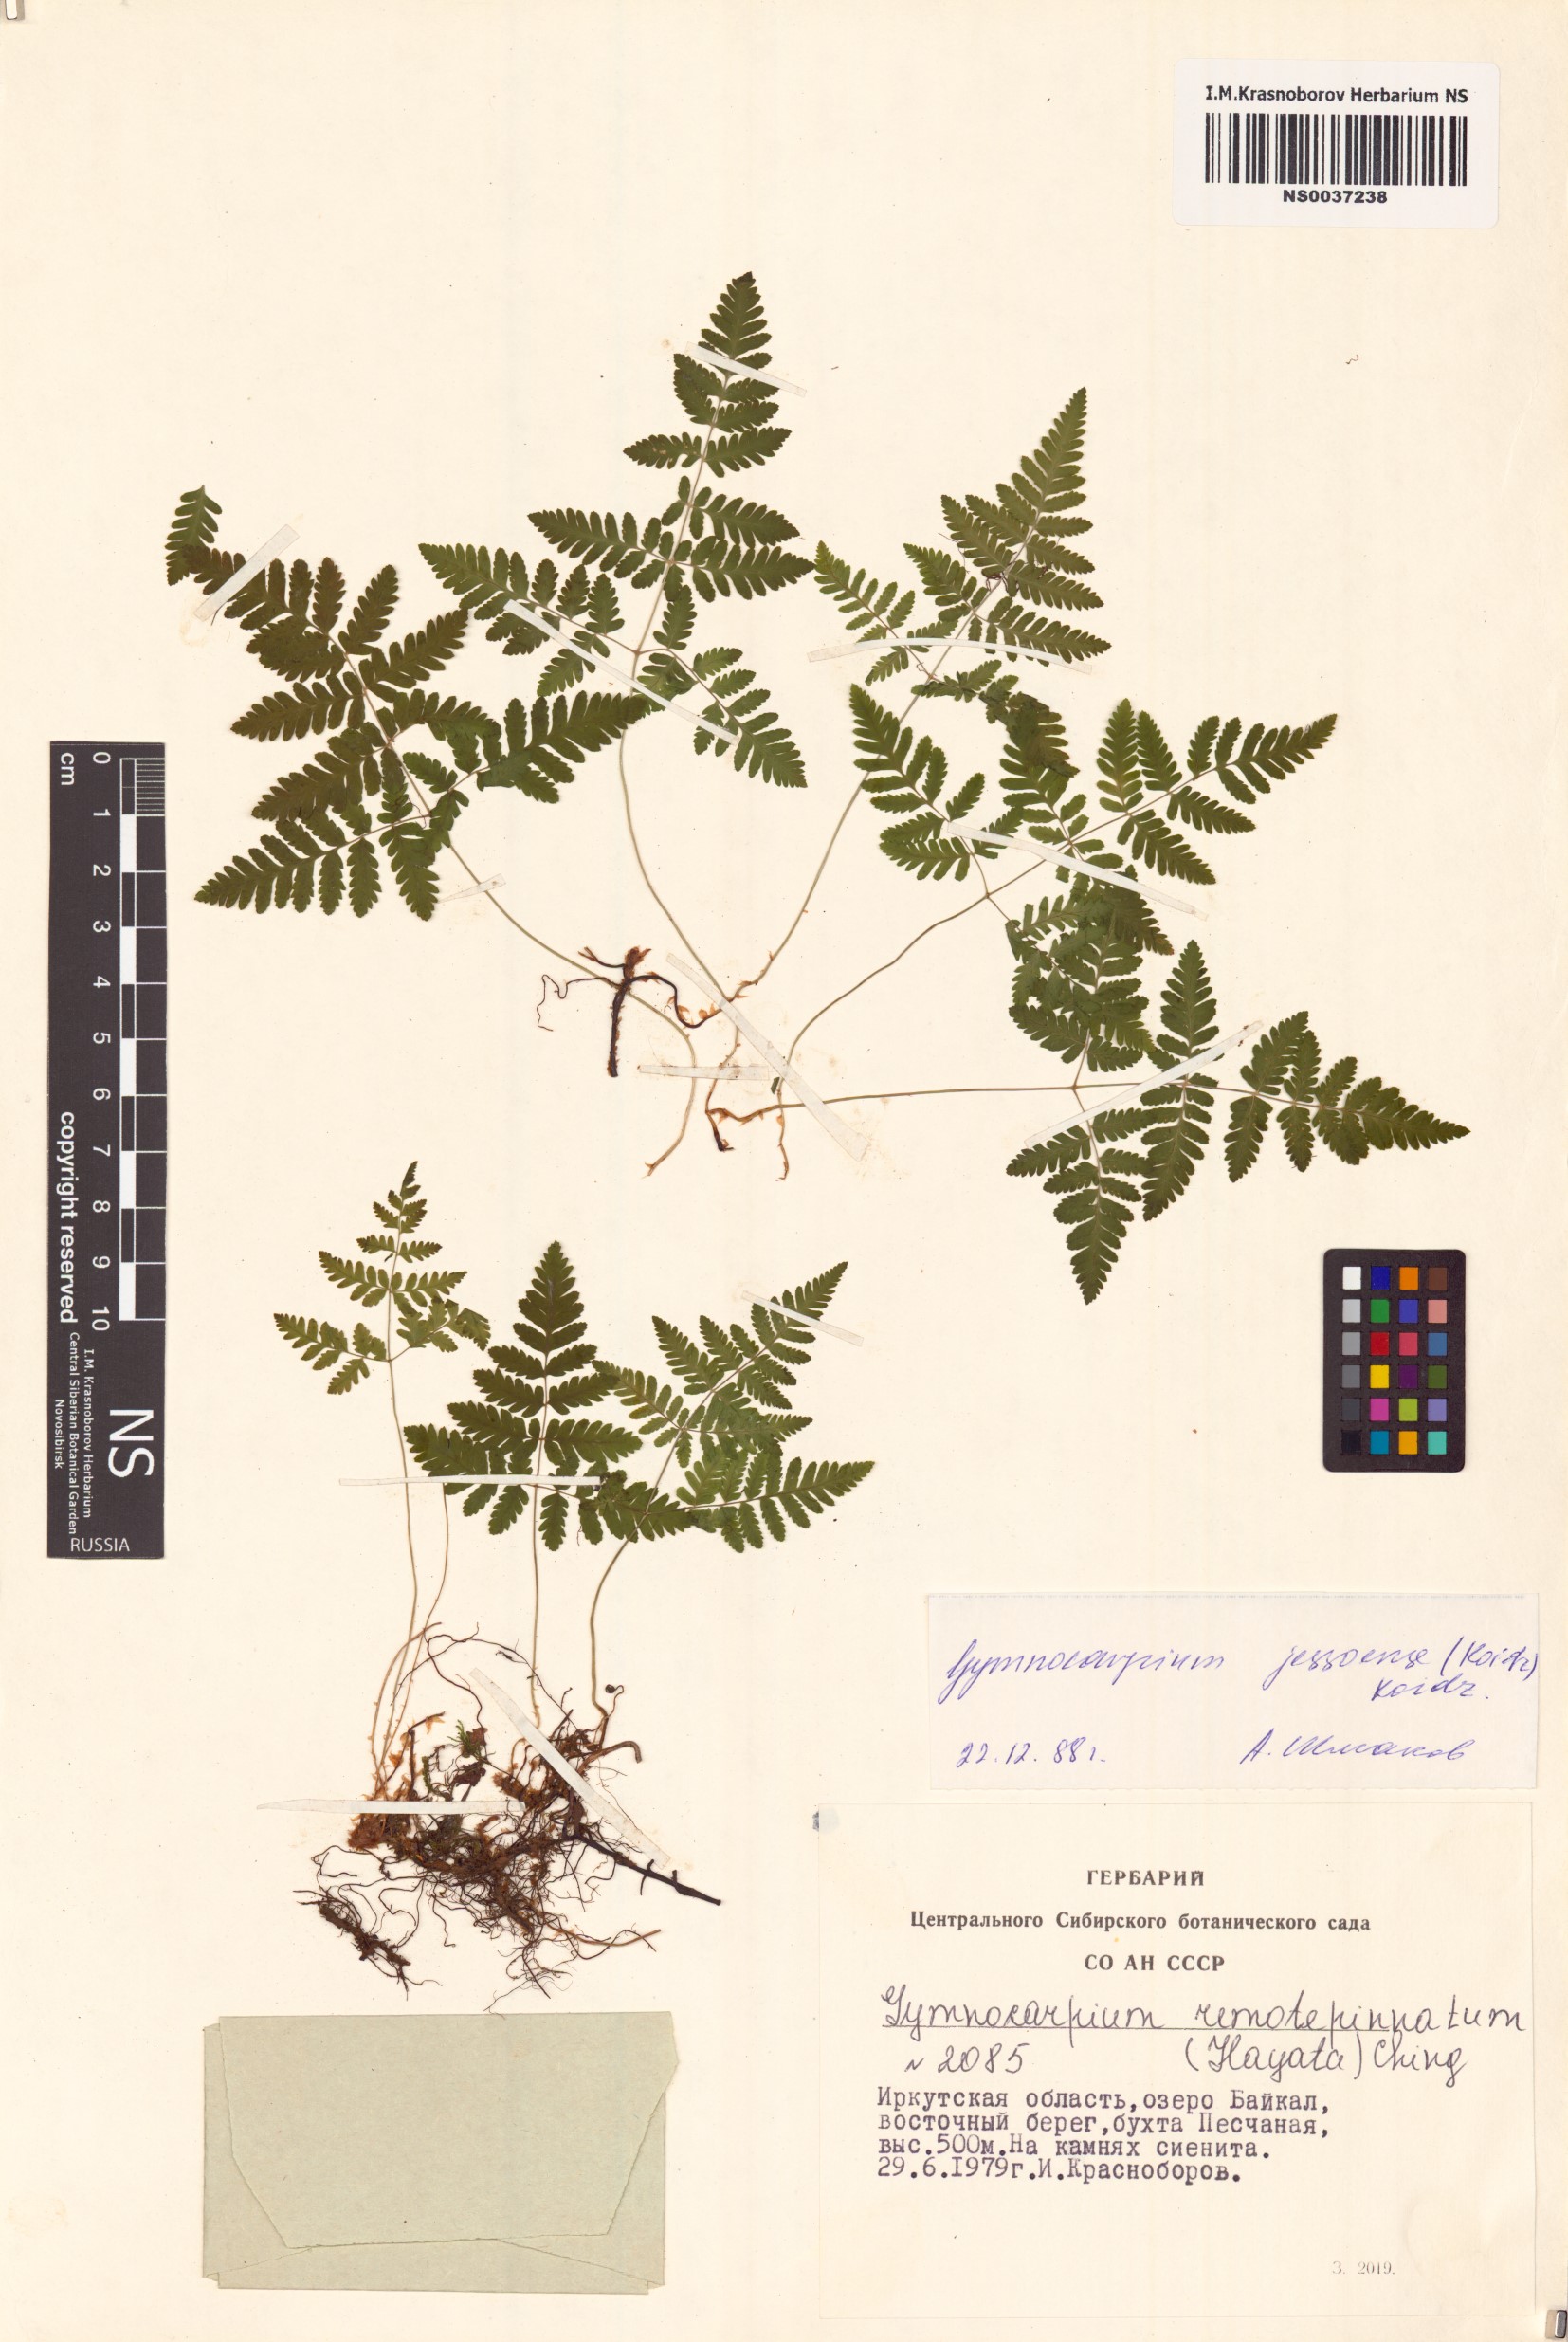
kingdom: Plantae
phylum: Tracheophyta
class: Polypodiopsida
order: Polypodiales
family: Cystopteridaceae
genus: Gymnocarpium
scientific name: Gymnocarpium jessoense
